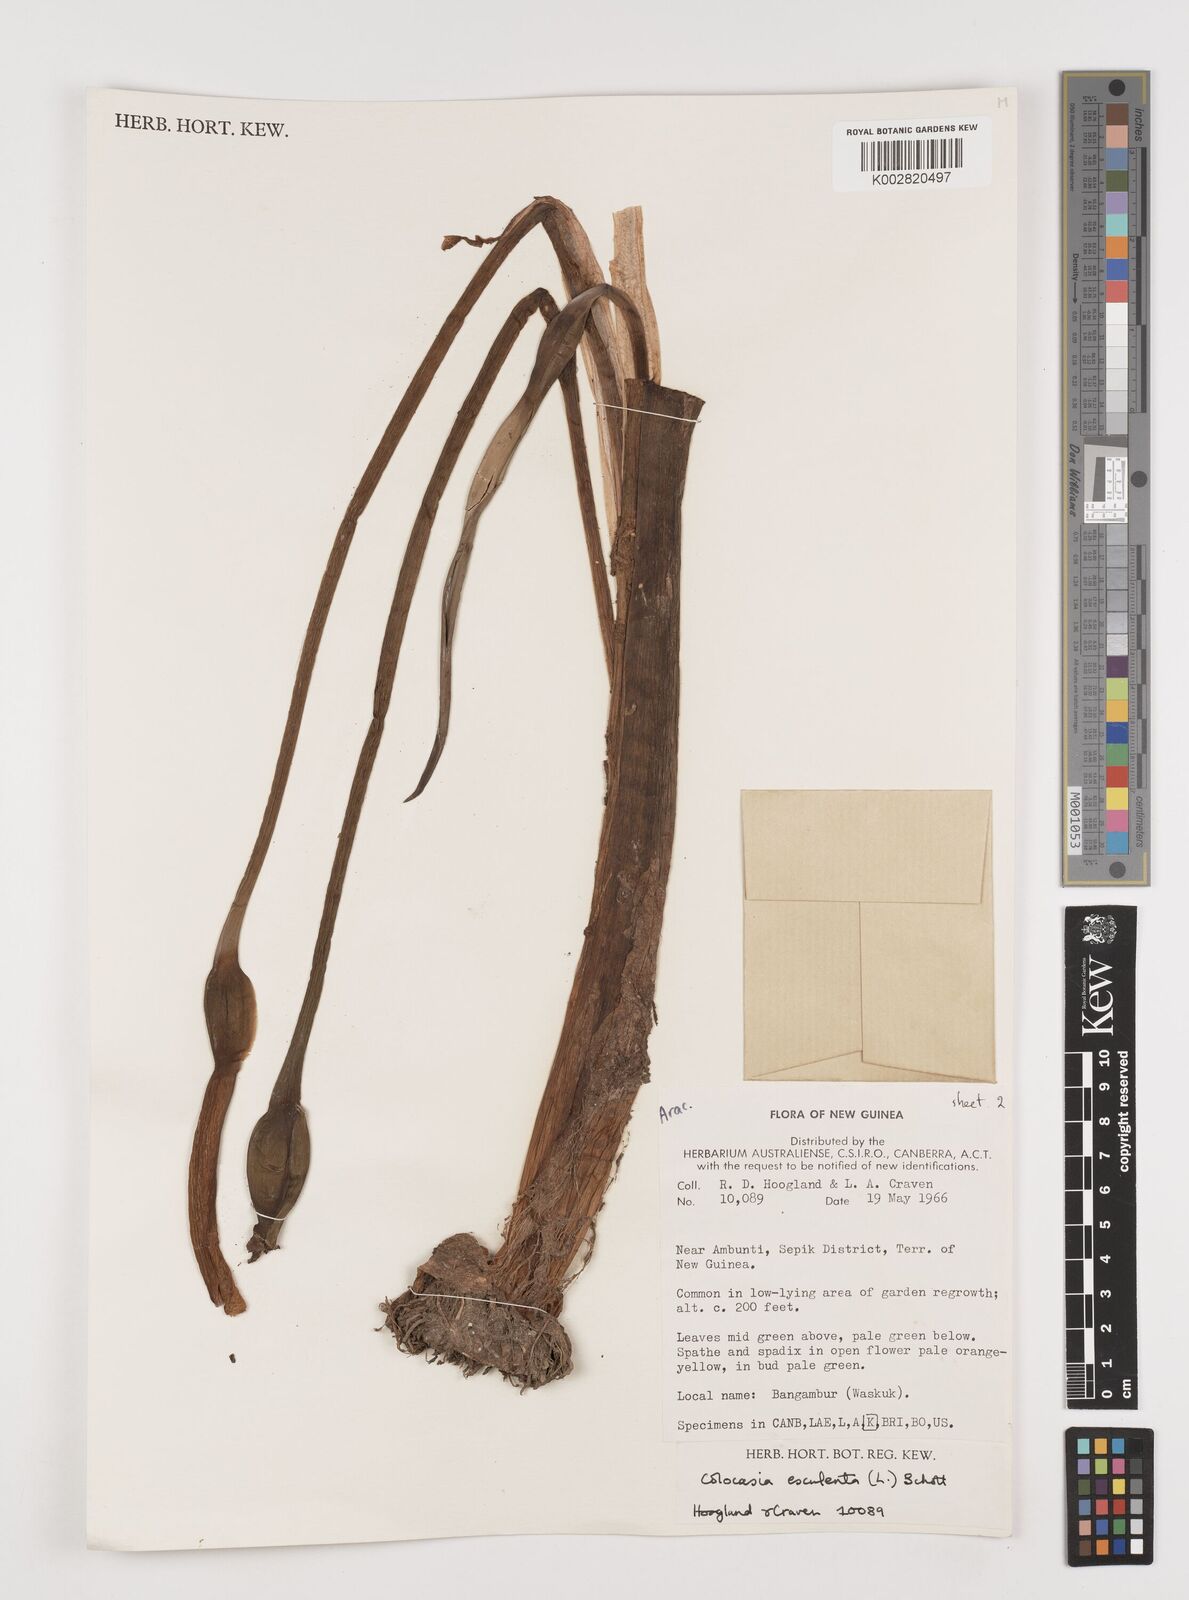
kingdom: Plantae
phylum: Tracheophyta
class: Liliopsida
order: Alismatales
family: Araceae
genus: Colocasia
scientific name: Colocasia esculenta
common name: Taro
